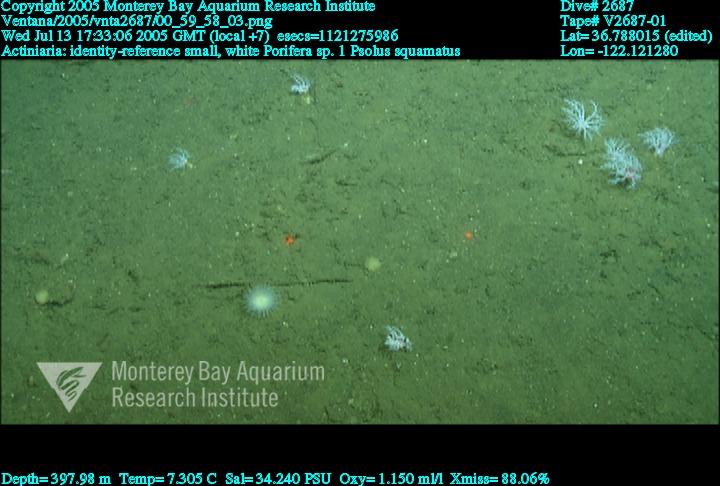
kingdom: Animalia
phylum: Porifera
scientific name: Porifera
